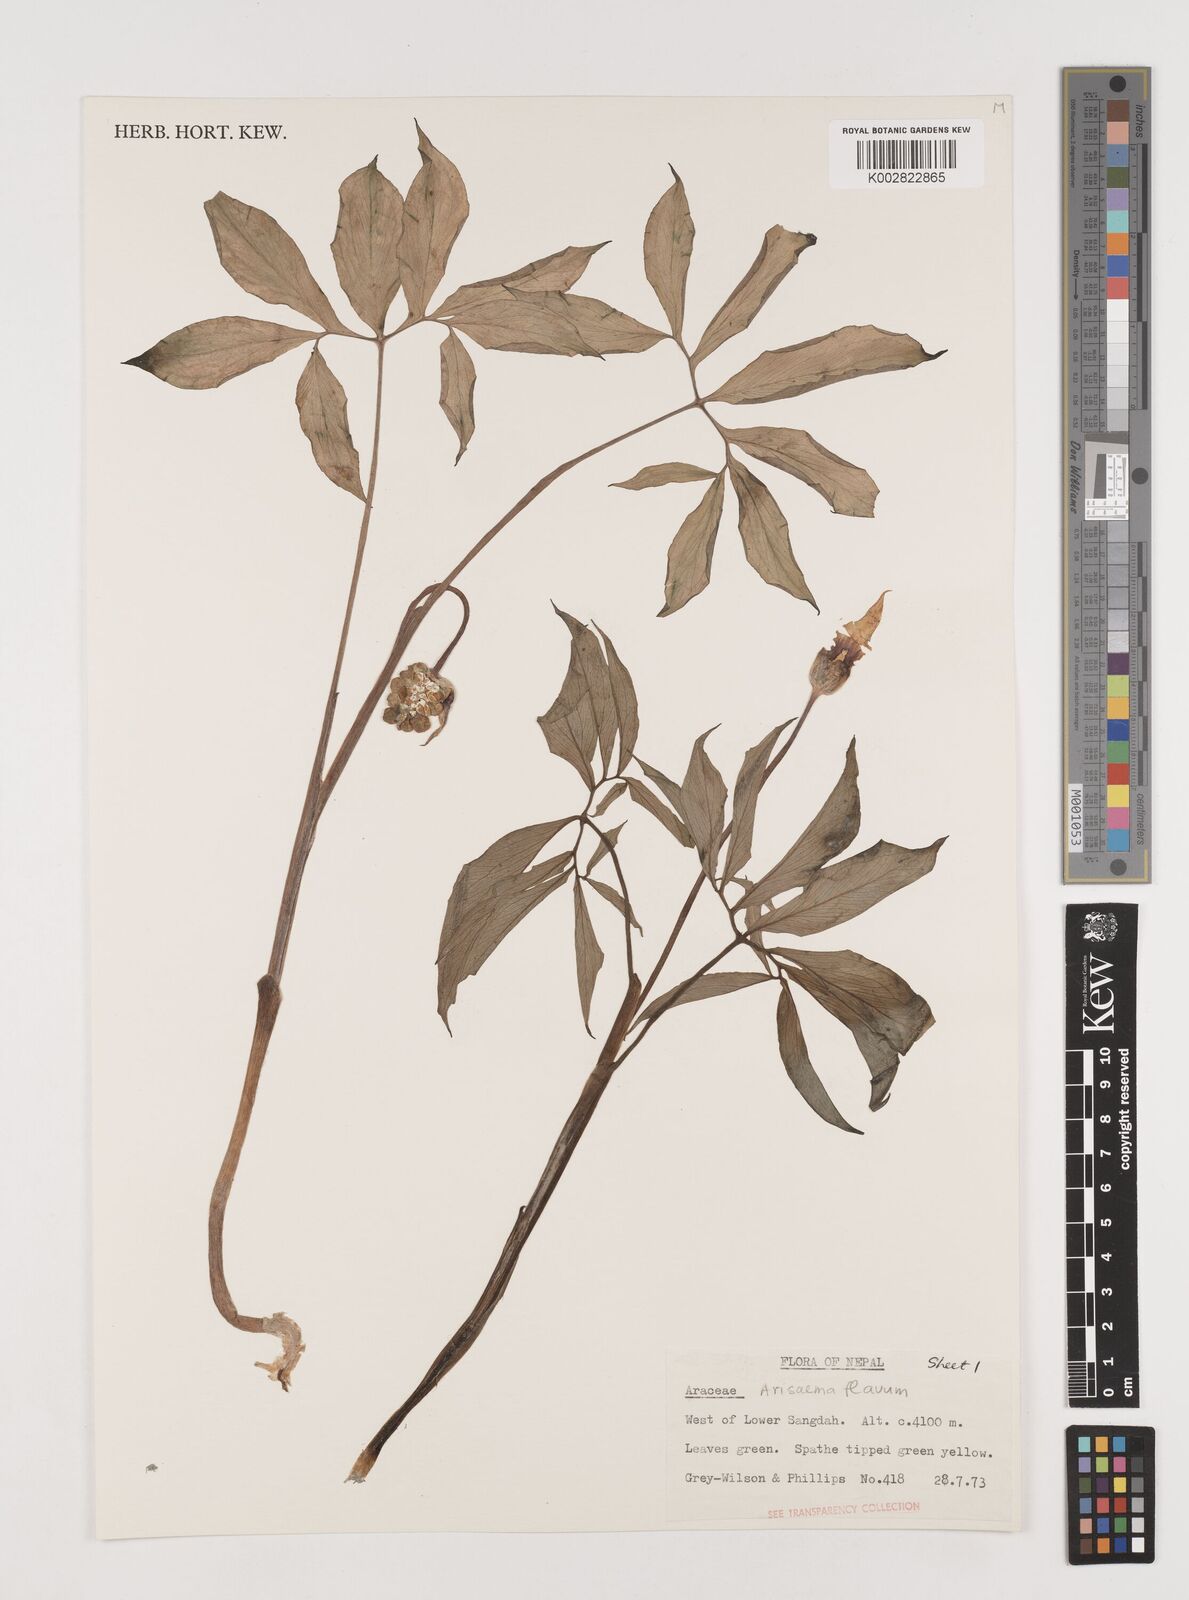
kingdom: Plantae
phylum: Tracheophyta
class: Liliopsida
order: Alismatales
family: Araceae
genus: Arisaema
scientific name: Arisaema flavum
